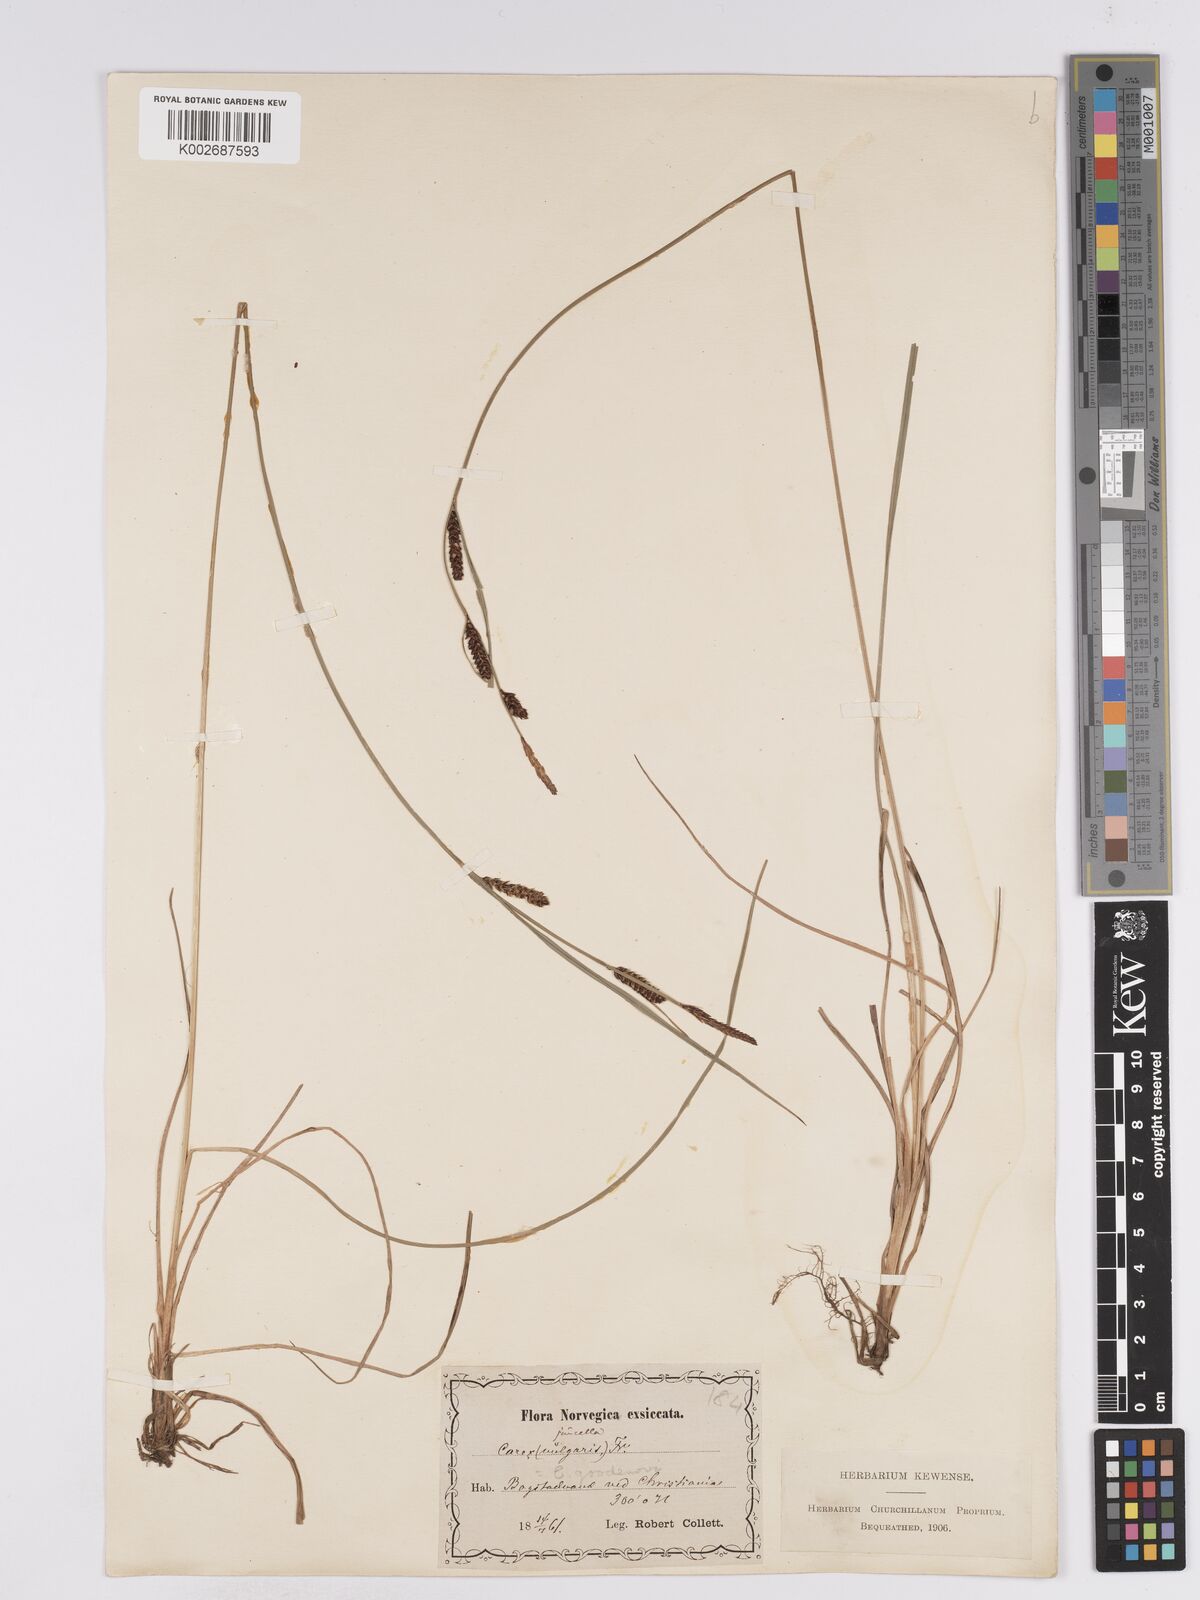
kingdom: Plantae
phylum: Tracheophyta
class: Liliopsida
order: Poales
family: Cyperaceae
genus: Carex
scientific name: Carex
